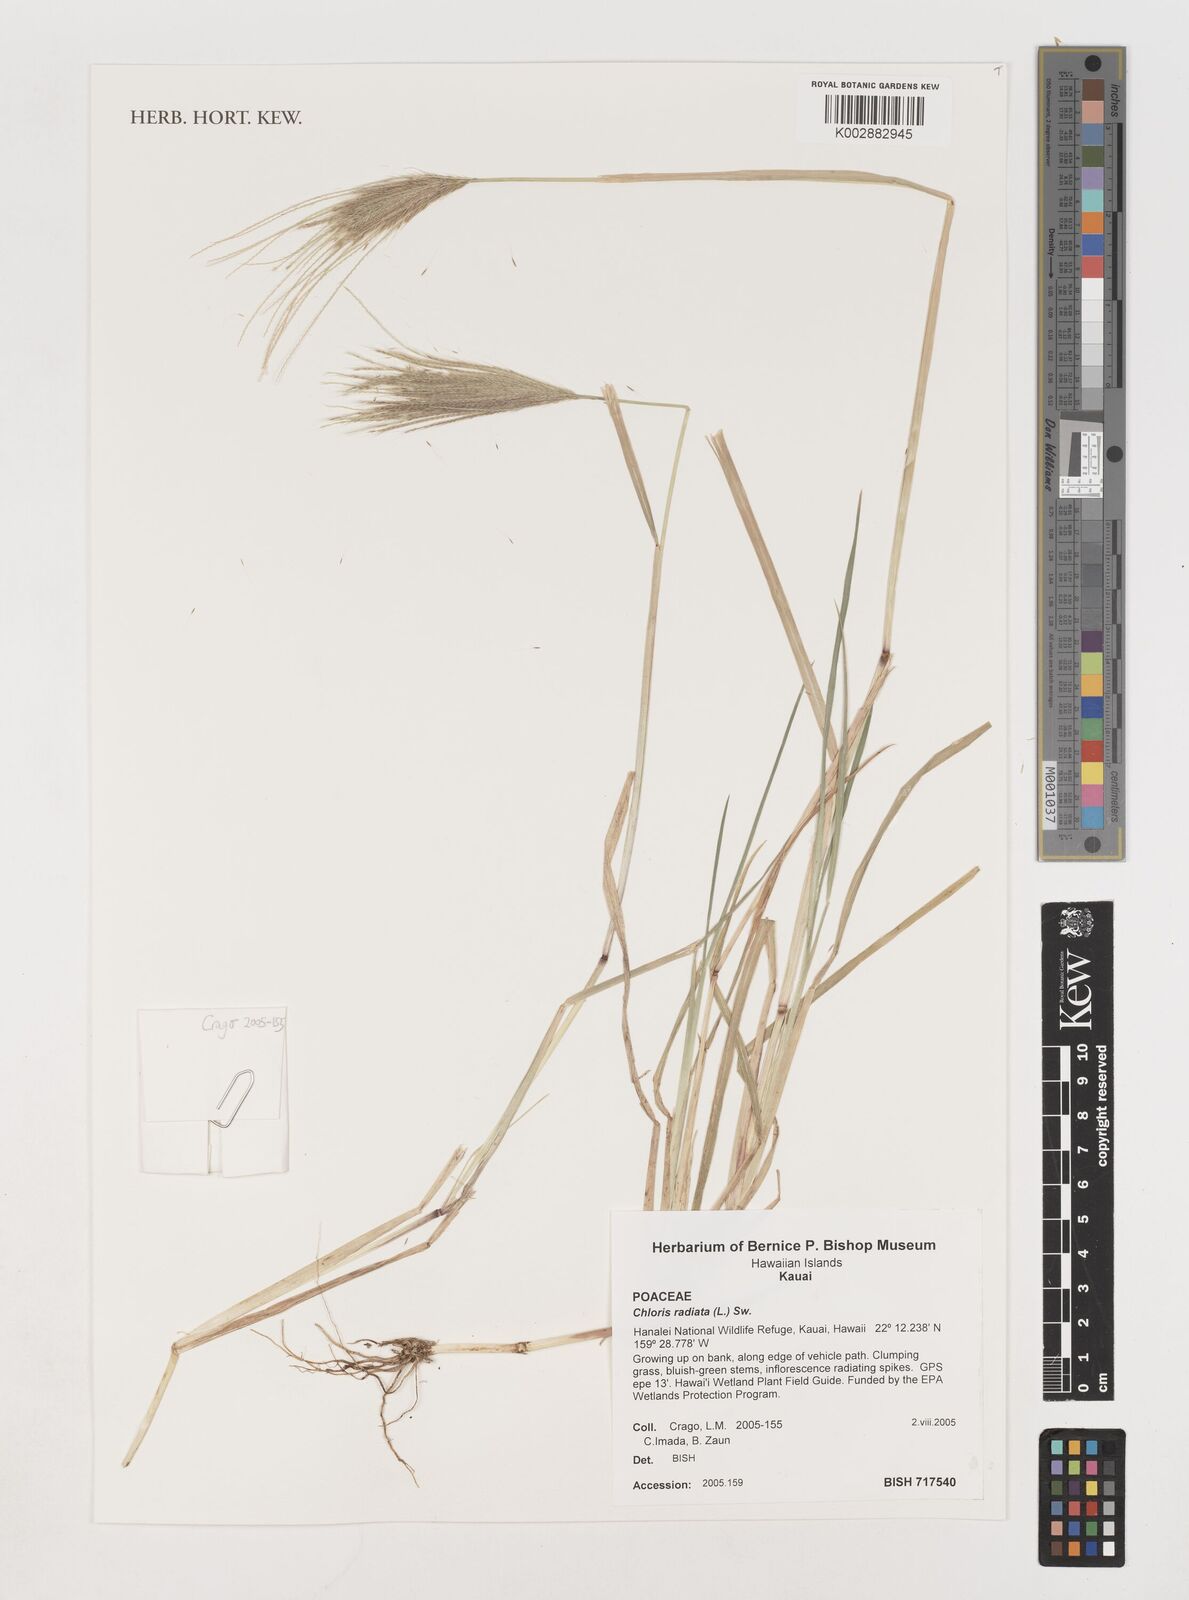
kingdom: Plantae
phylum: Tracheophyta
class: Liliopsida
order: Poales
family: Poaceae
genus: Chloris
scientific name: Chloris radiata
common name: Radiate fingergrass
